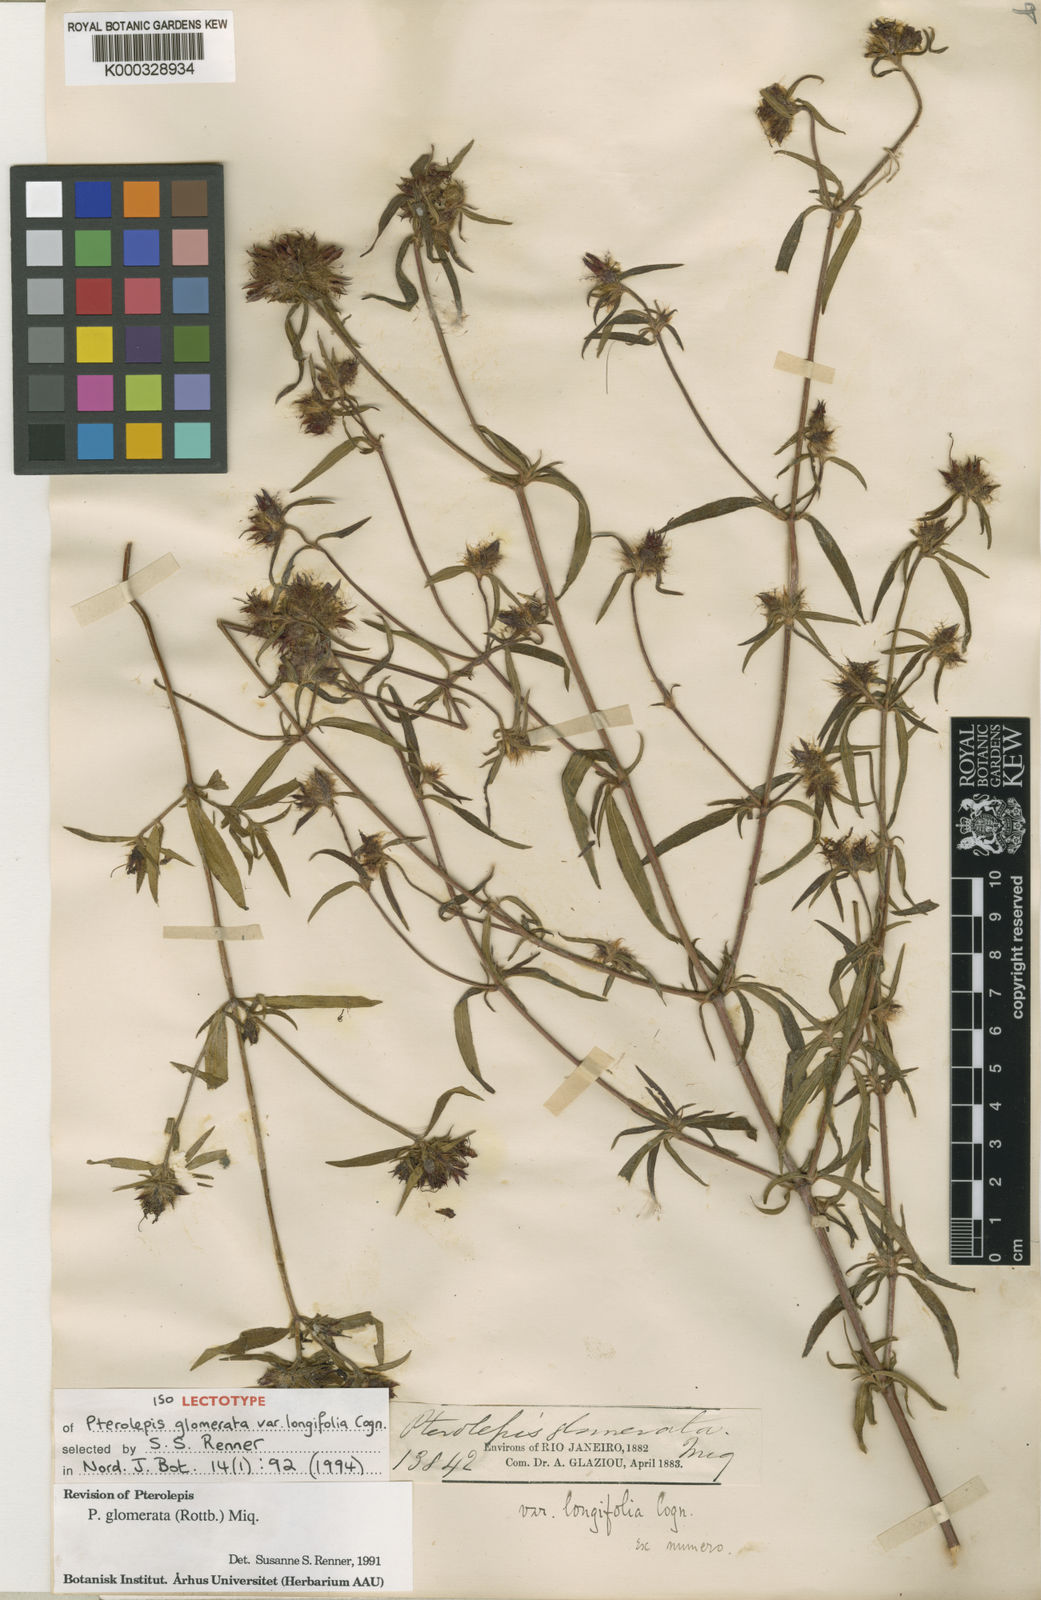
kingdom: Plantae
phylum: Tracheophyta
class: Magnoliopsida
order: Myrtales
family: Melastomataceae
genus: Pterolepis
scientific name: Pterolepis glomerata
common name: False meadowbeauty
